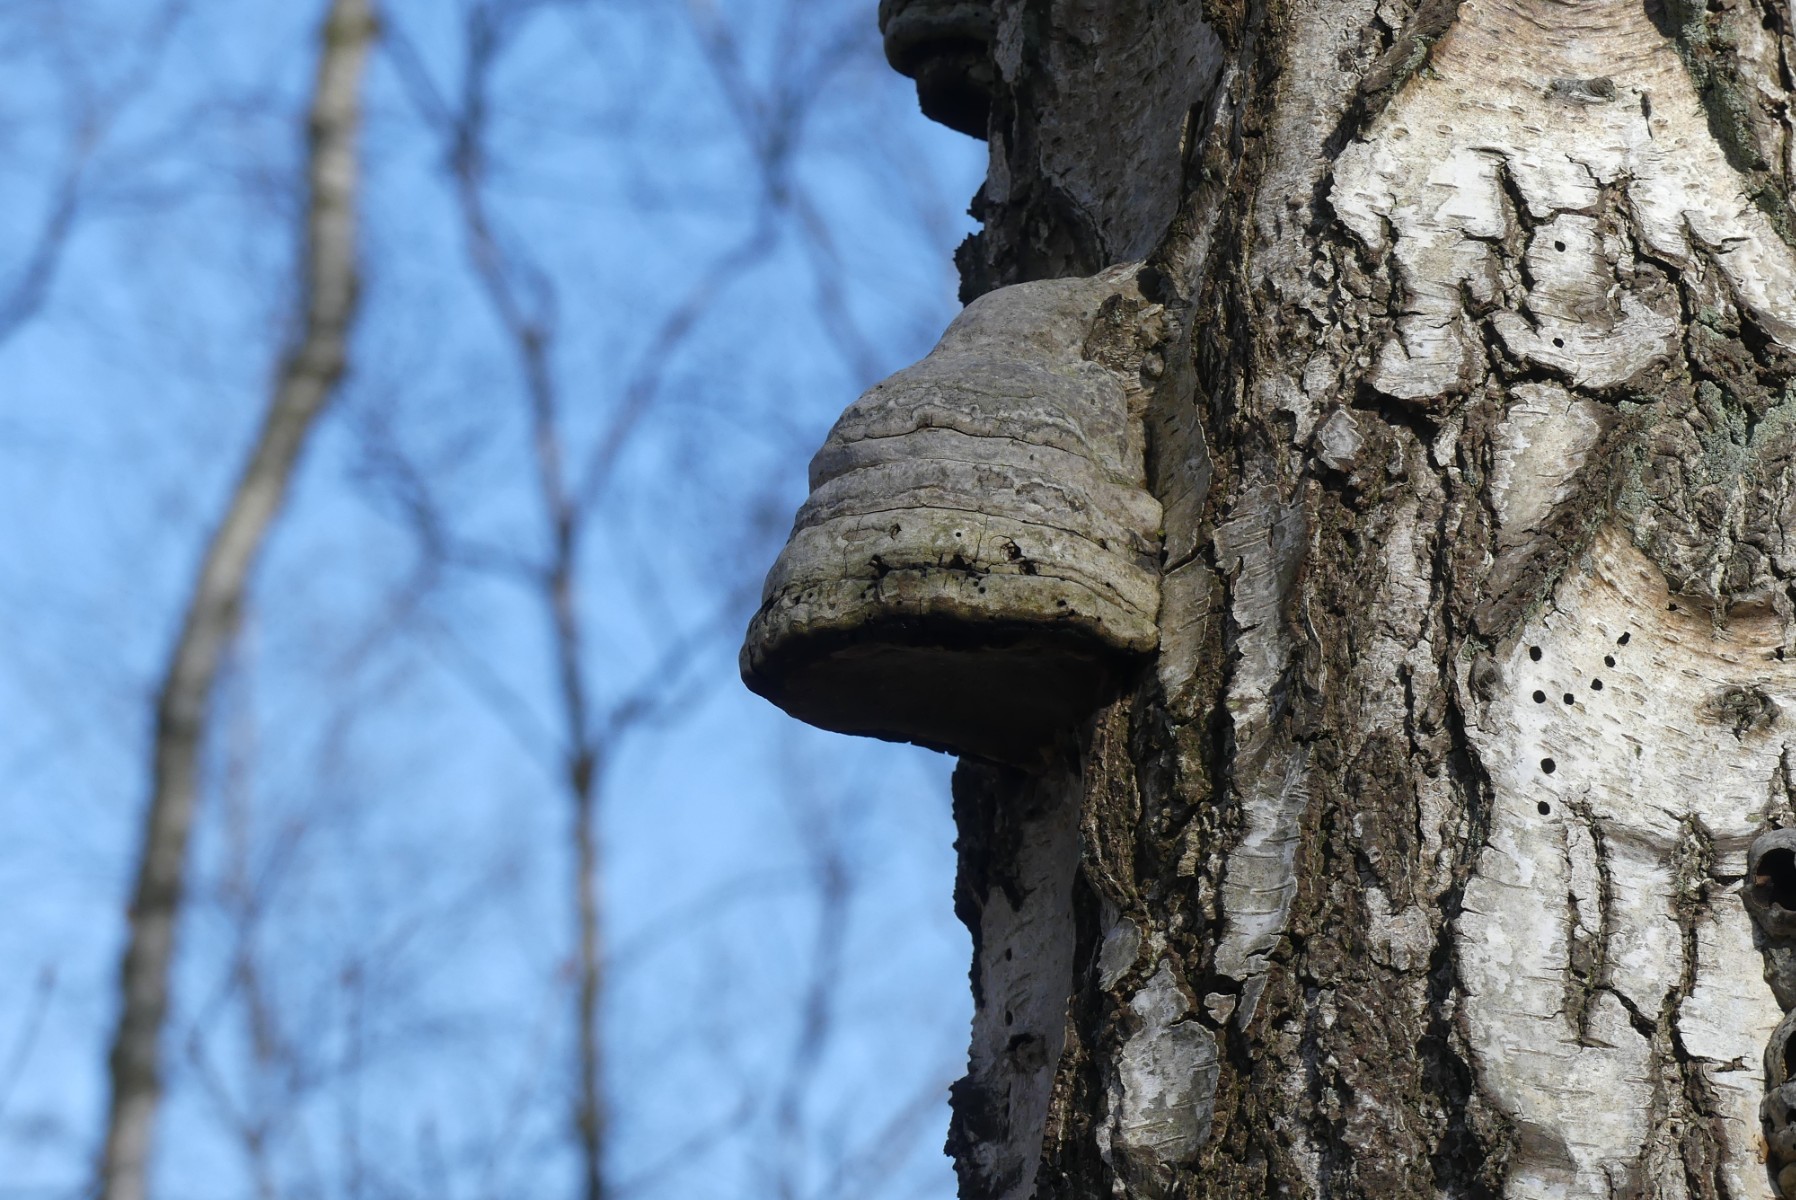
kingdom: Fungi
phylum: Basidiomycota
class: Agaricomycetes
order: Polyporales
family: Polyporaceae
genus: Fomes
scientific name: Fomes fomentarius
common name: tøndersvamp
